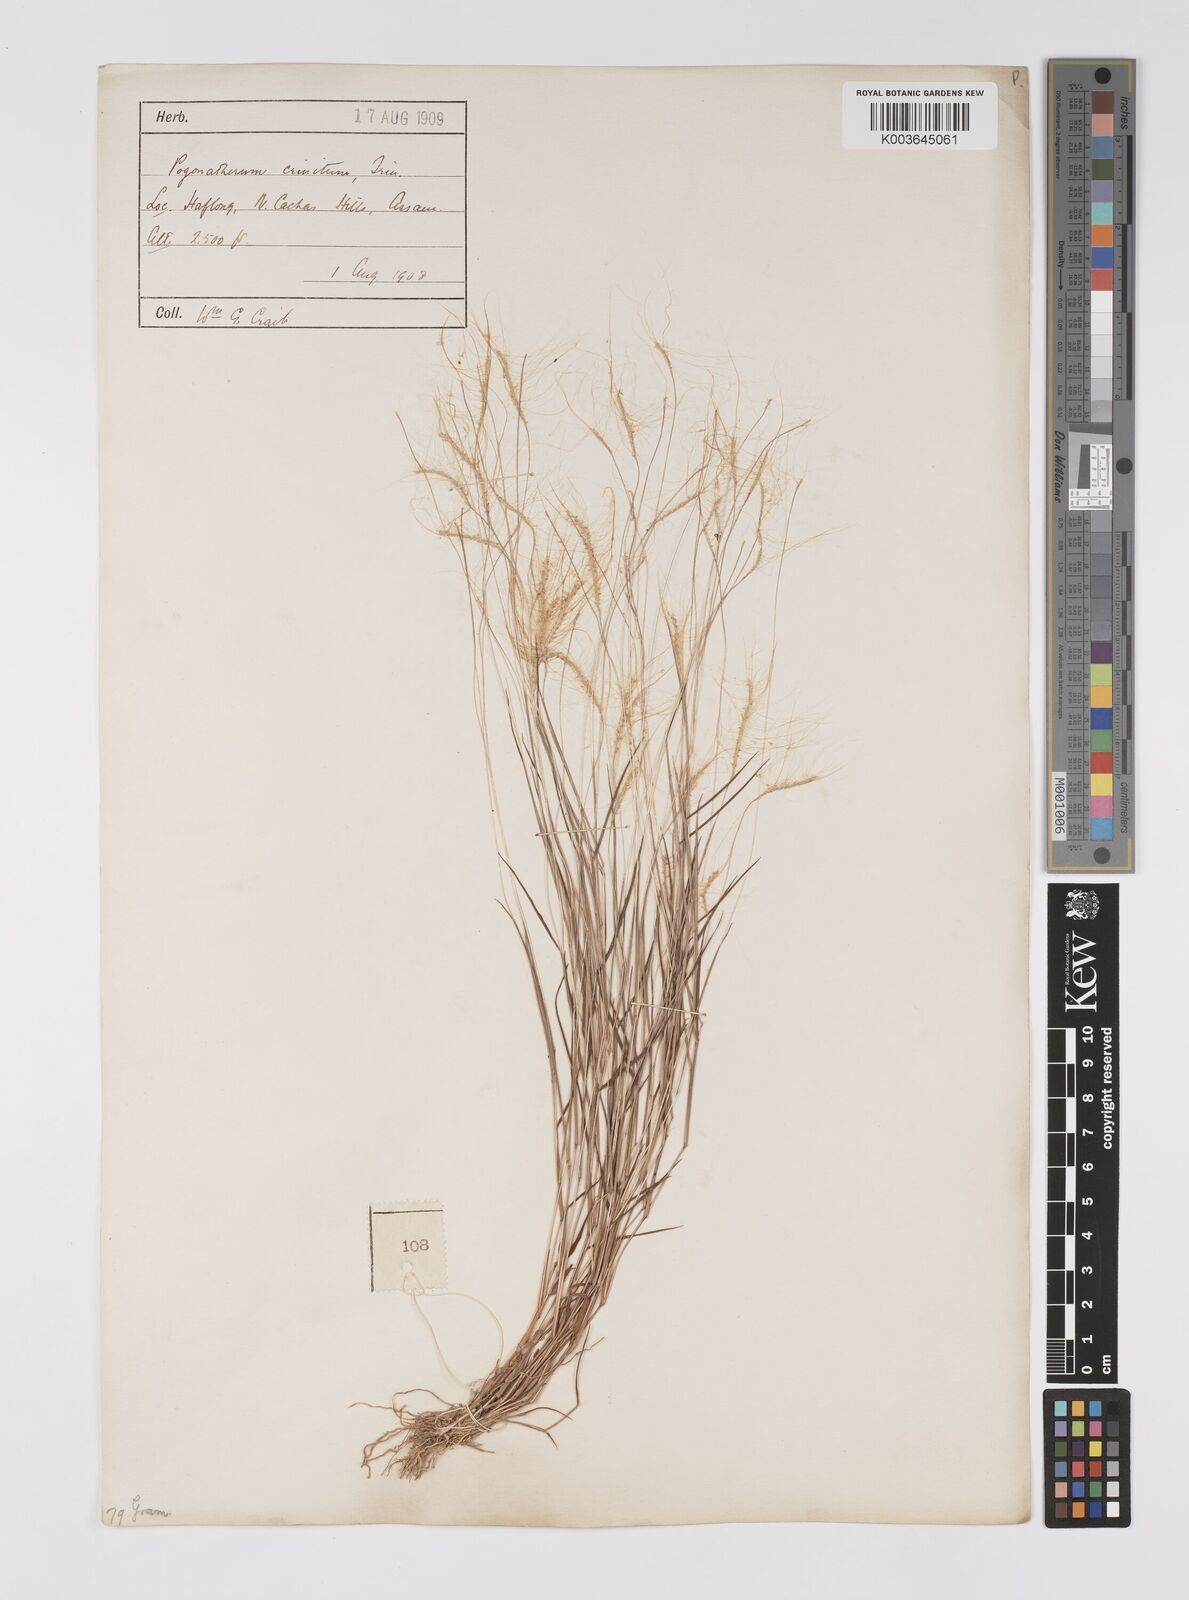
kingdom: Plantae
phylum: Tracheophyta
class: Liliopsida
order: Poales
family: Poaceae
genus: Pogonatherum
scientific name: Pogonatherum crinitum
